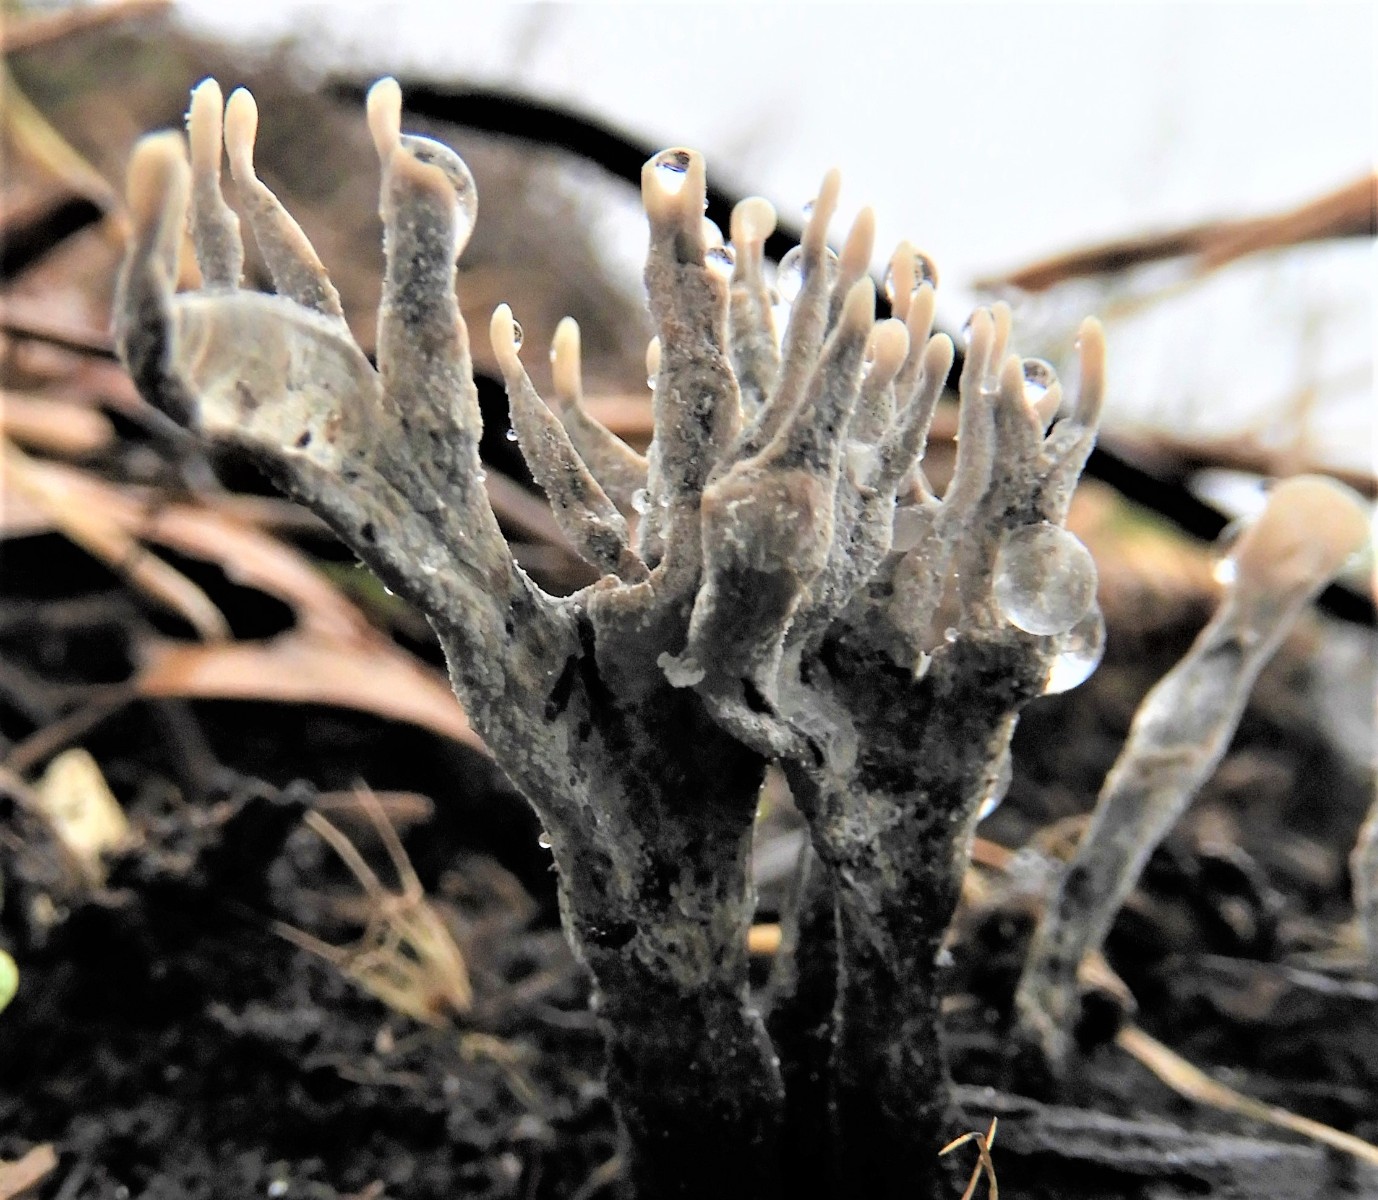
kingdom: Fungi
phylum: Ascomycota
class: Sordariomycetes
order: Xylariales
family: Xylariaceae
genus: Xylaria
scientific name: Xylaria hypoxylon
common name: grenet stødsvamp
